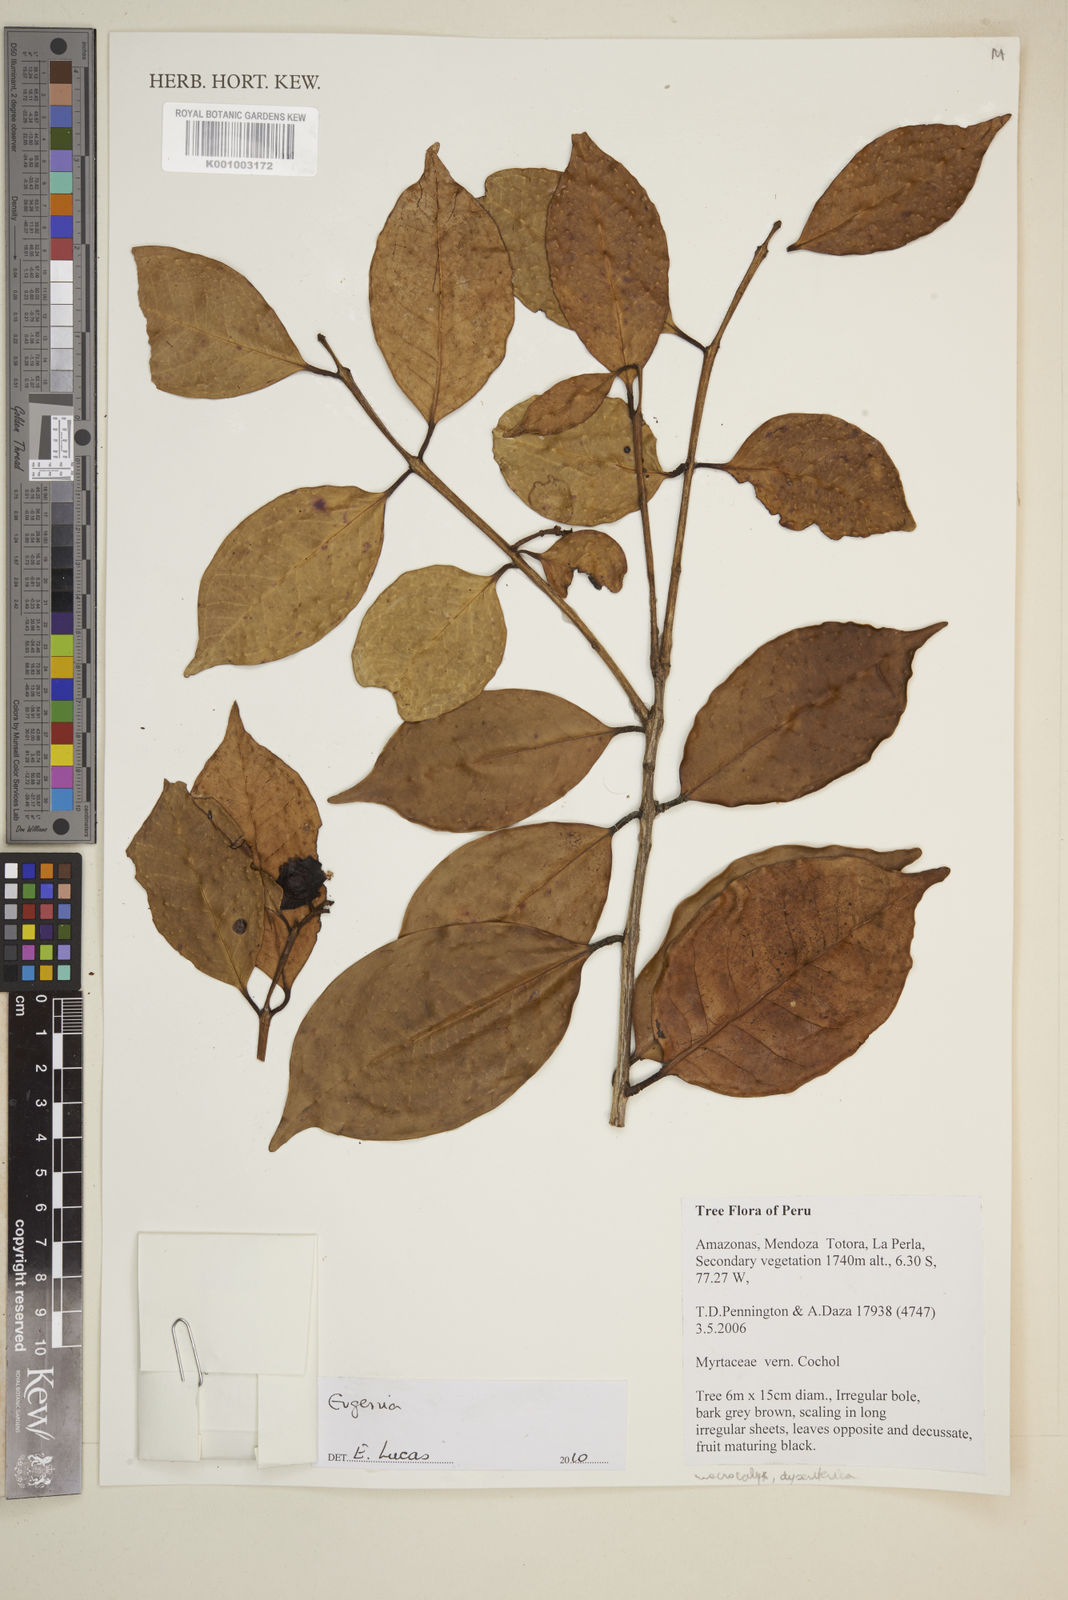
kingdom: Plantae
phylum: Tracheophyta
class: Magnoliopsida
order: Myrtales
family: Myrtaceae
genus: Eugenia
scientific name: Eugenia
